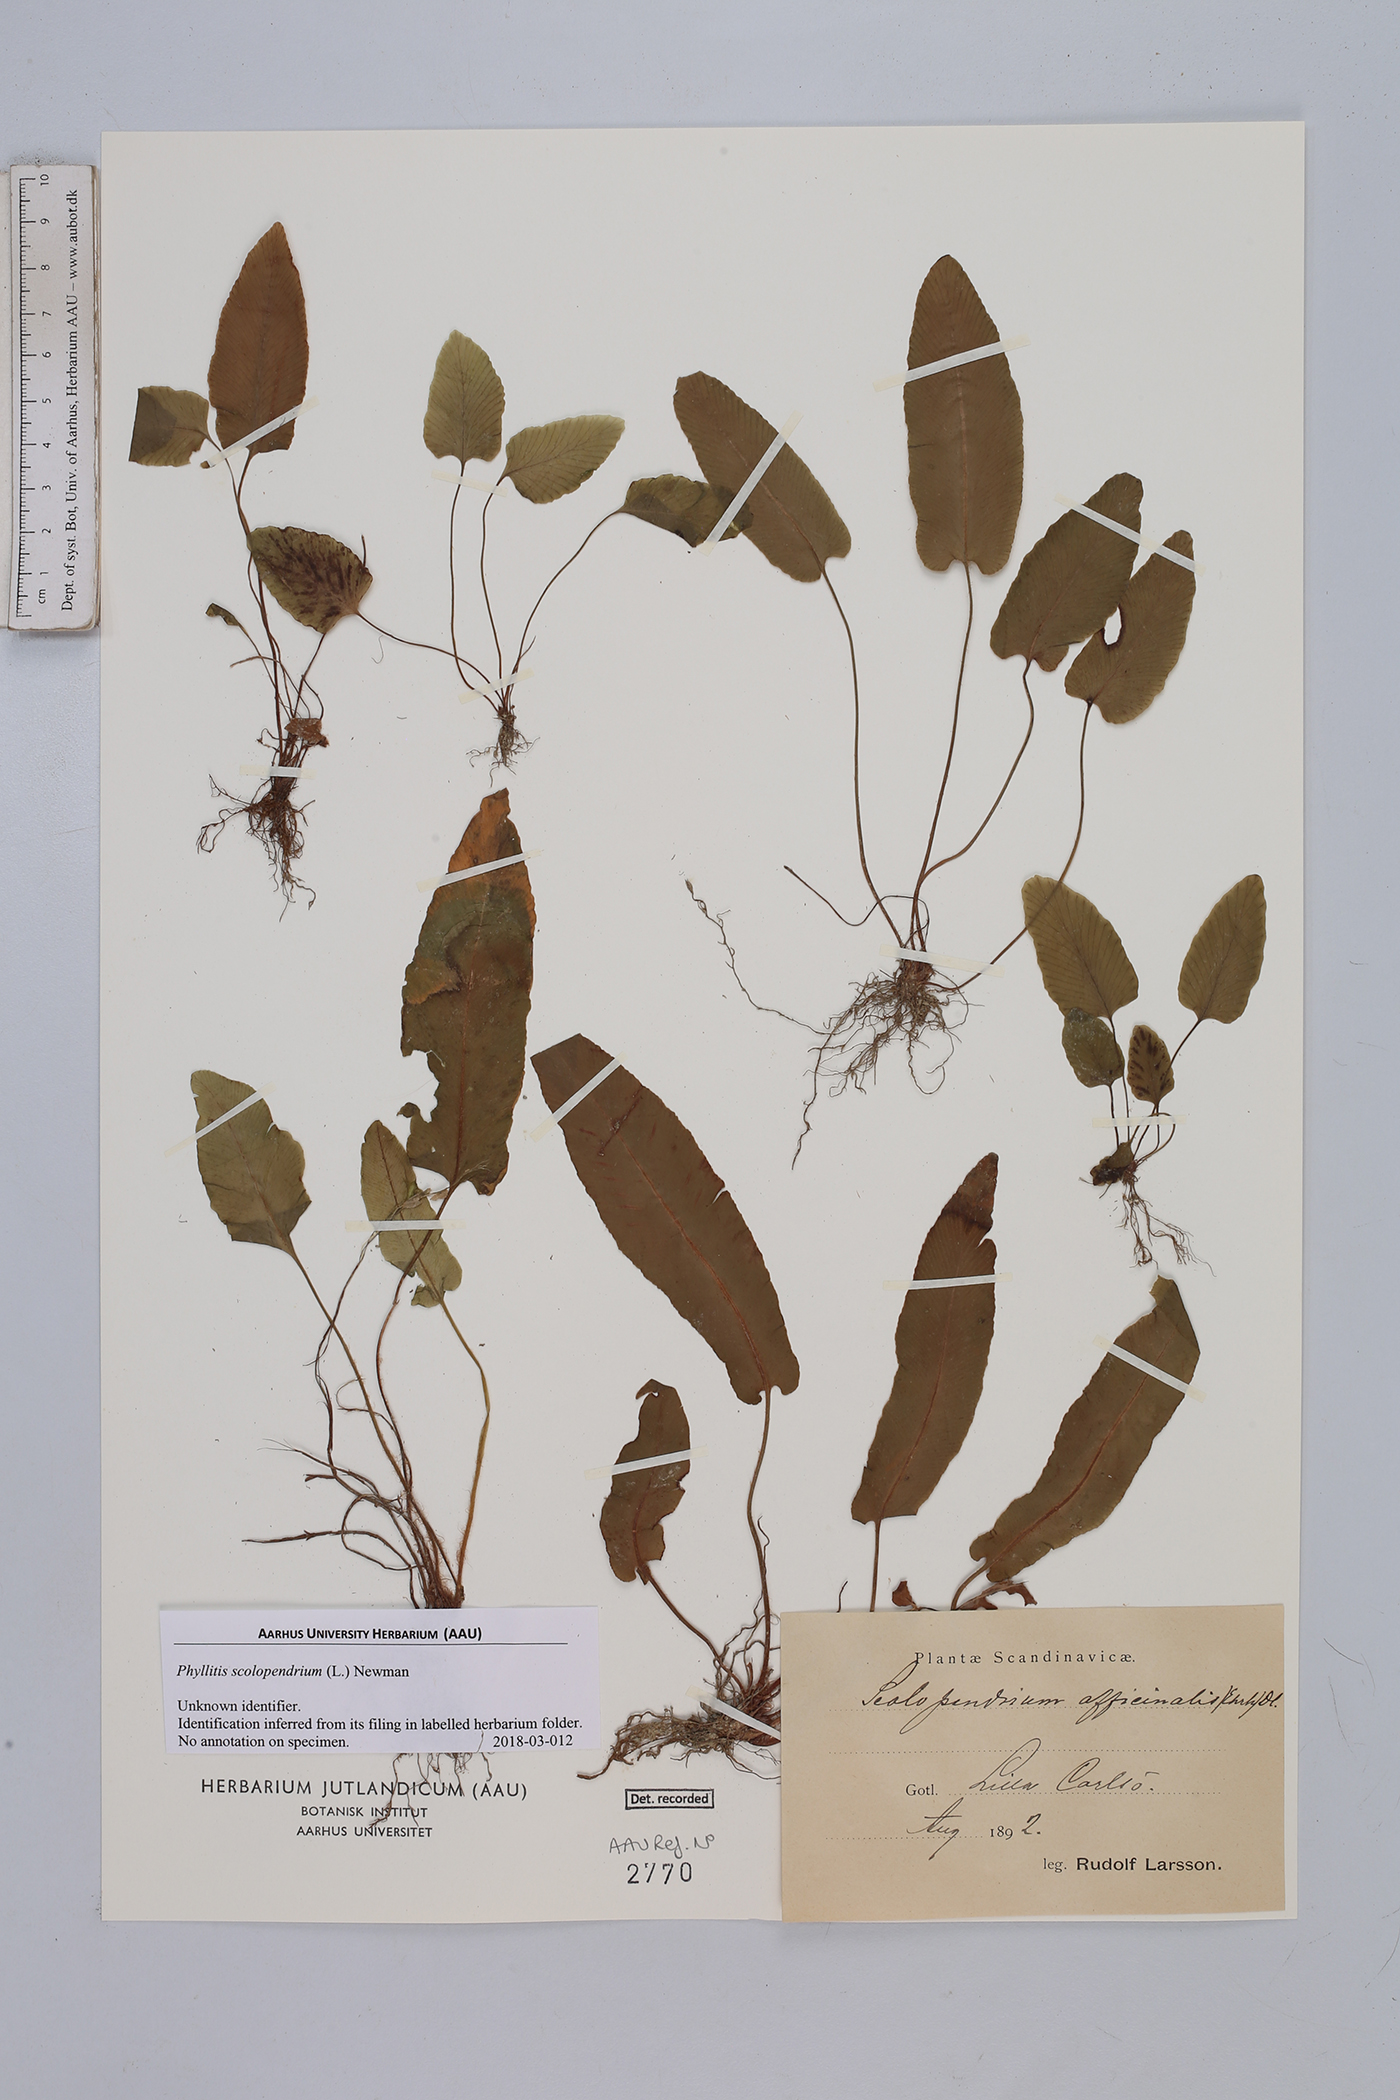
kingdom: Plantae
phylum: Tracheophyta
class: Polypodiopsida
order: Polypodiales
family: Aspleniaceae
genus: Asplenium
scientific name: Asplenium scolopendrium
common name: Hart's-tongue fern
